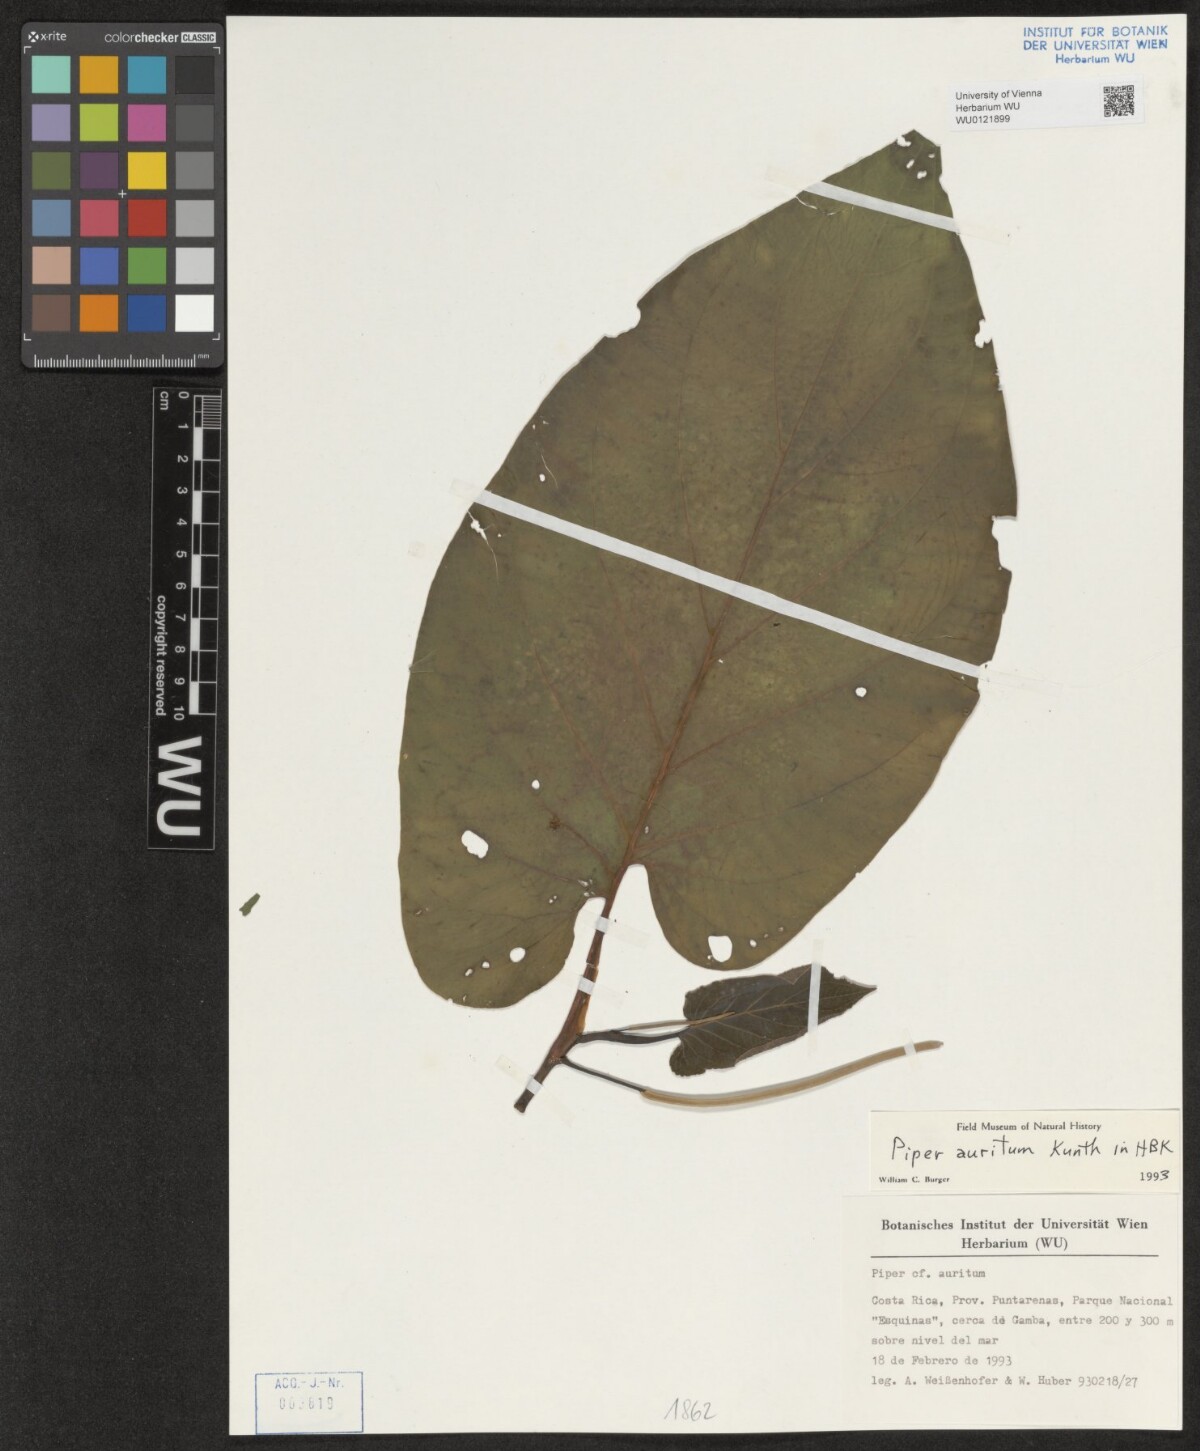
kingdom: Plantae
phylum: Tracheophyta
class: Magnoliopsida
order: Piperales
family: Piperaceae
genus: Piper
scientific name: Piper auritum
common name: Vera cruz pepper
